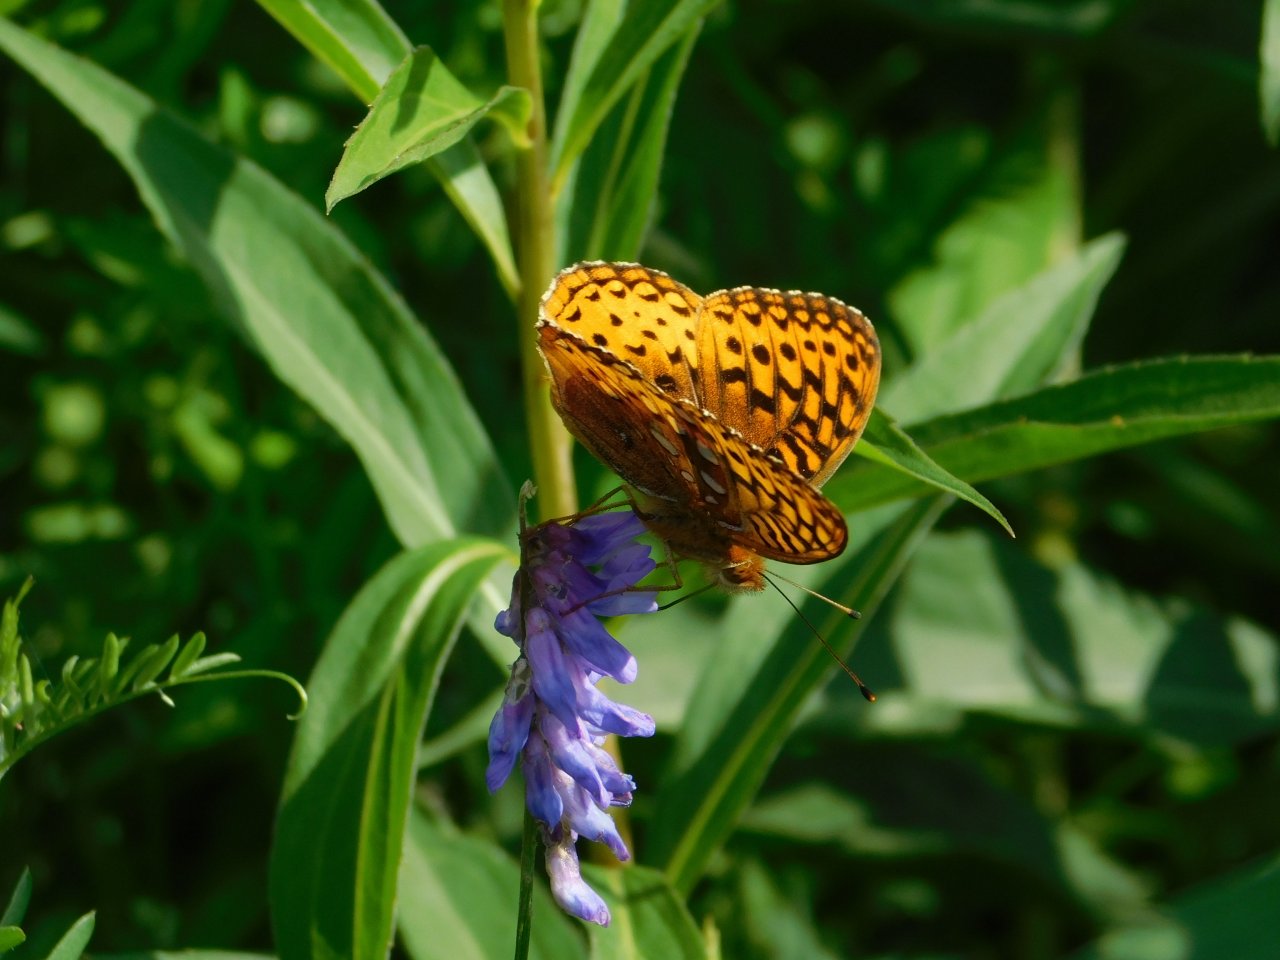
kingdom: Animalia
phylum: Arthropoda
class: Insecta
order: Lepidoptera
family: Nymphalidae
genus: Speyeria
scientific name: Speyeria cybele
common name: Great Spangled Fritillary
